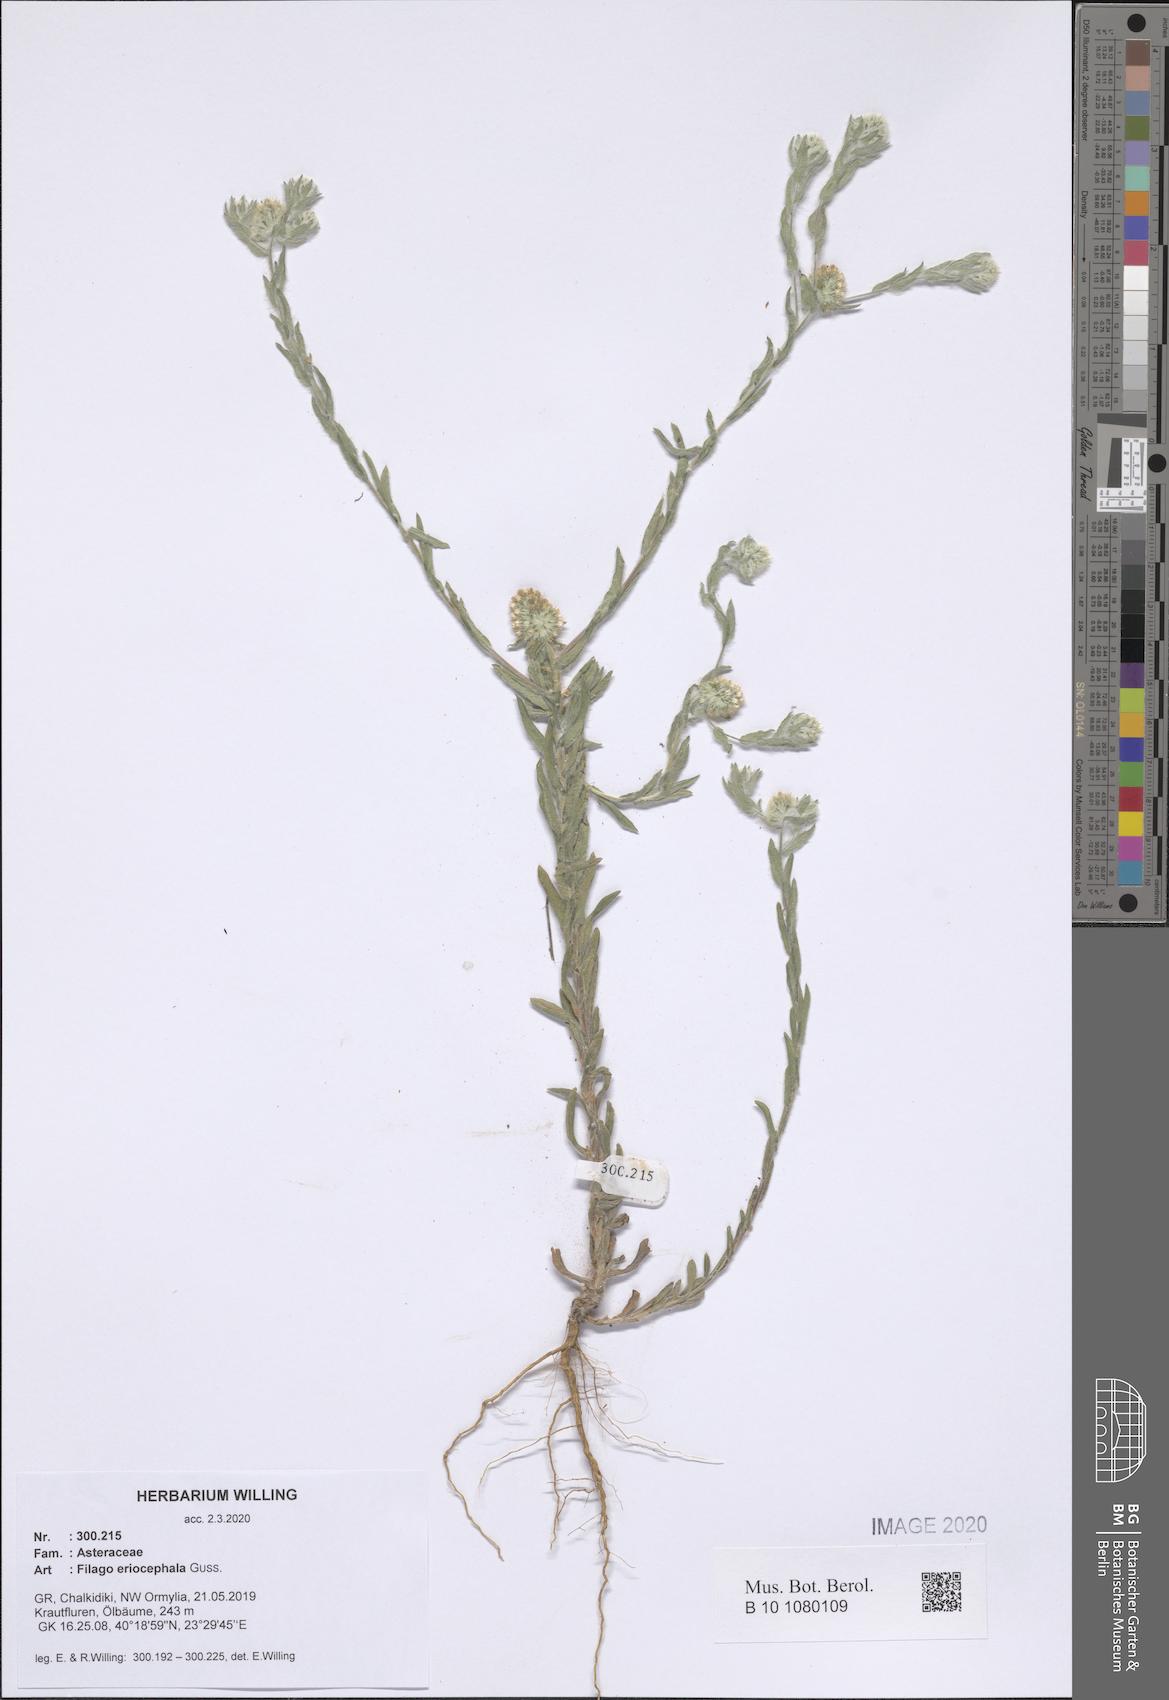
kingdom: Plantae
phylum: Tracheophyta
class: Magnoliopsida
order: Asterales
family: Asteraceae
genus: Filago
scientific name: Filago eriocephala
